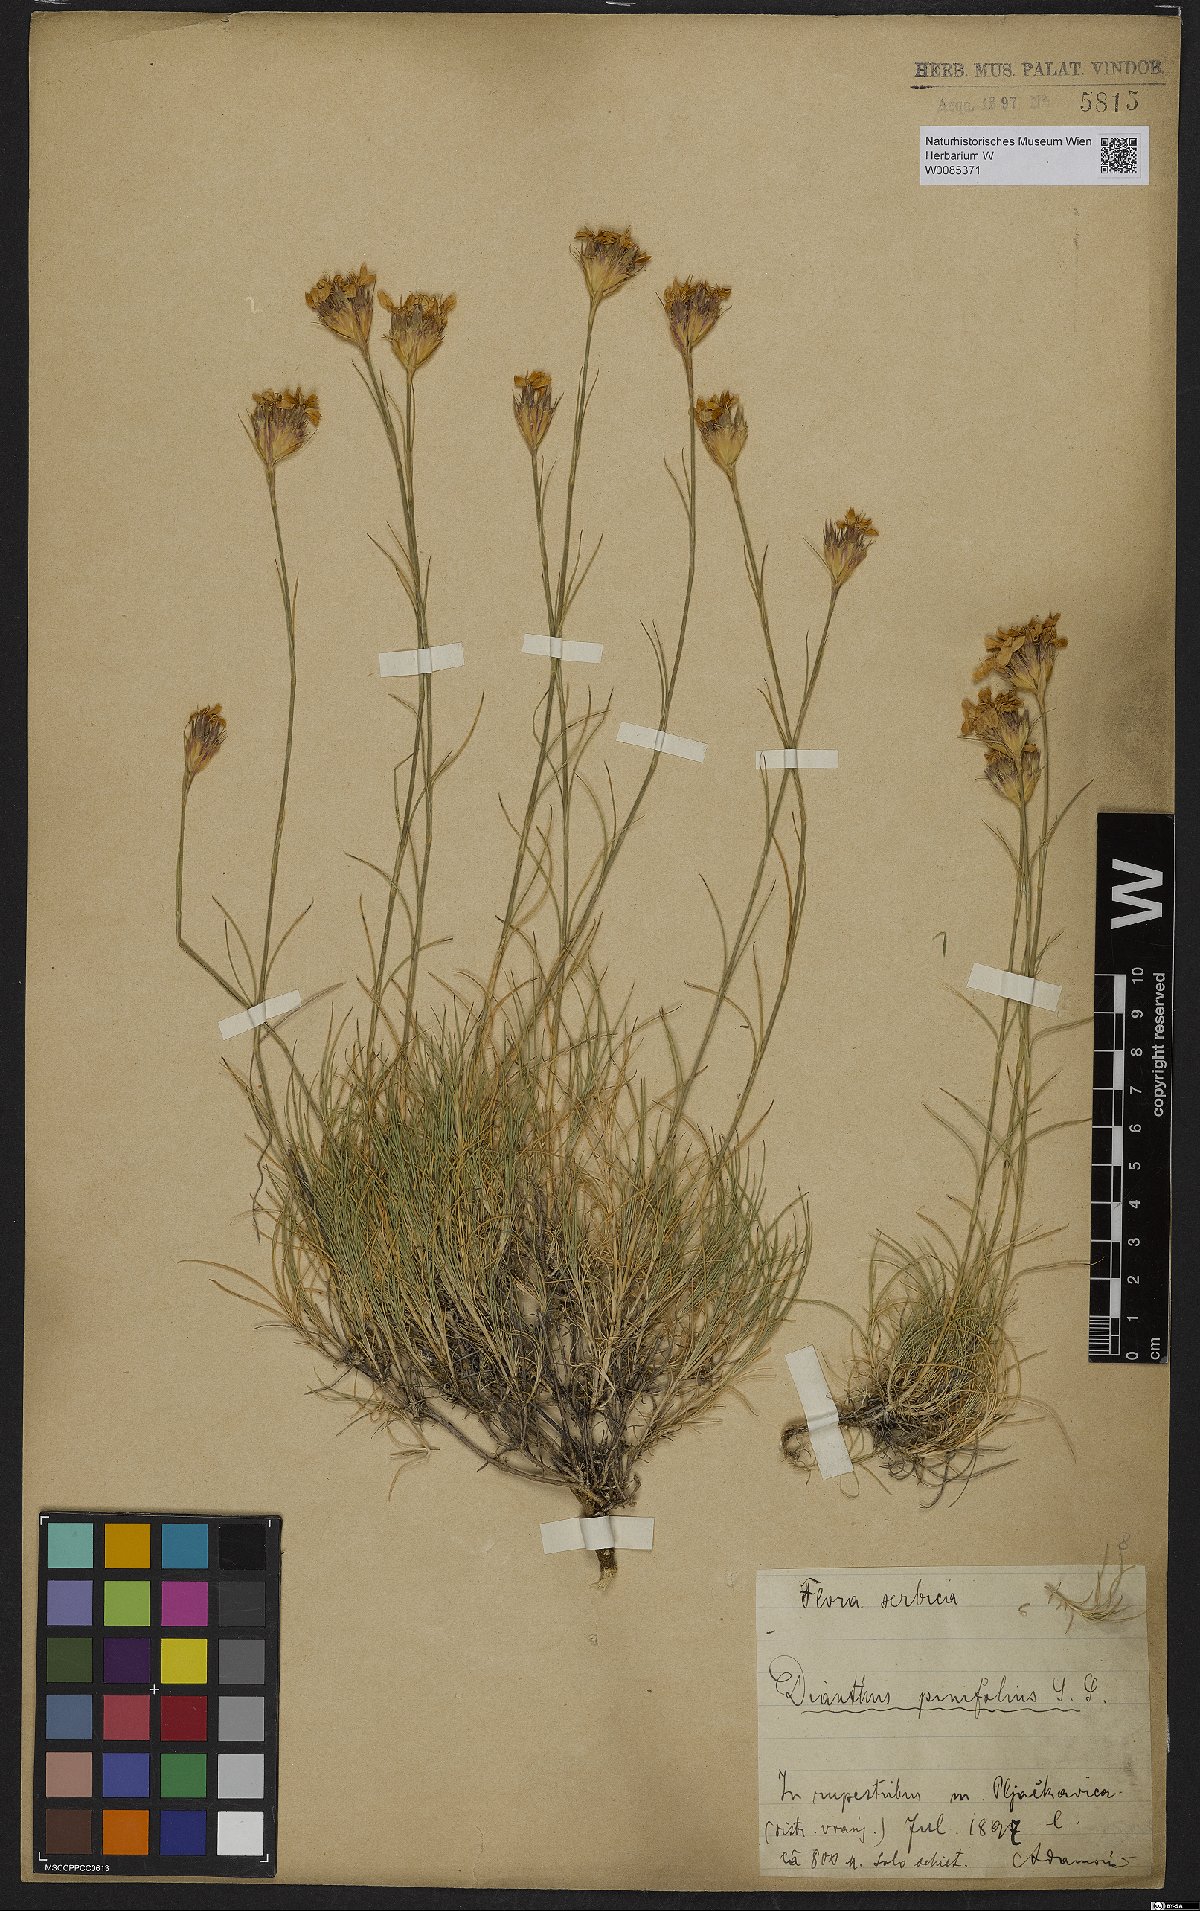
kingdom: Plantae
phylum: Tracheophyta
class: Liliopsida
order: Poales
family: Poaceae
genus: Elymus
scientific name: Elymus panormitanus
